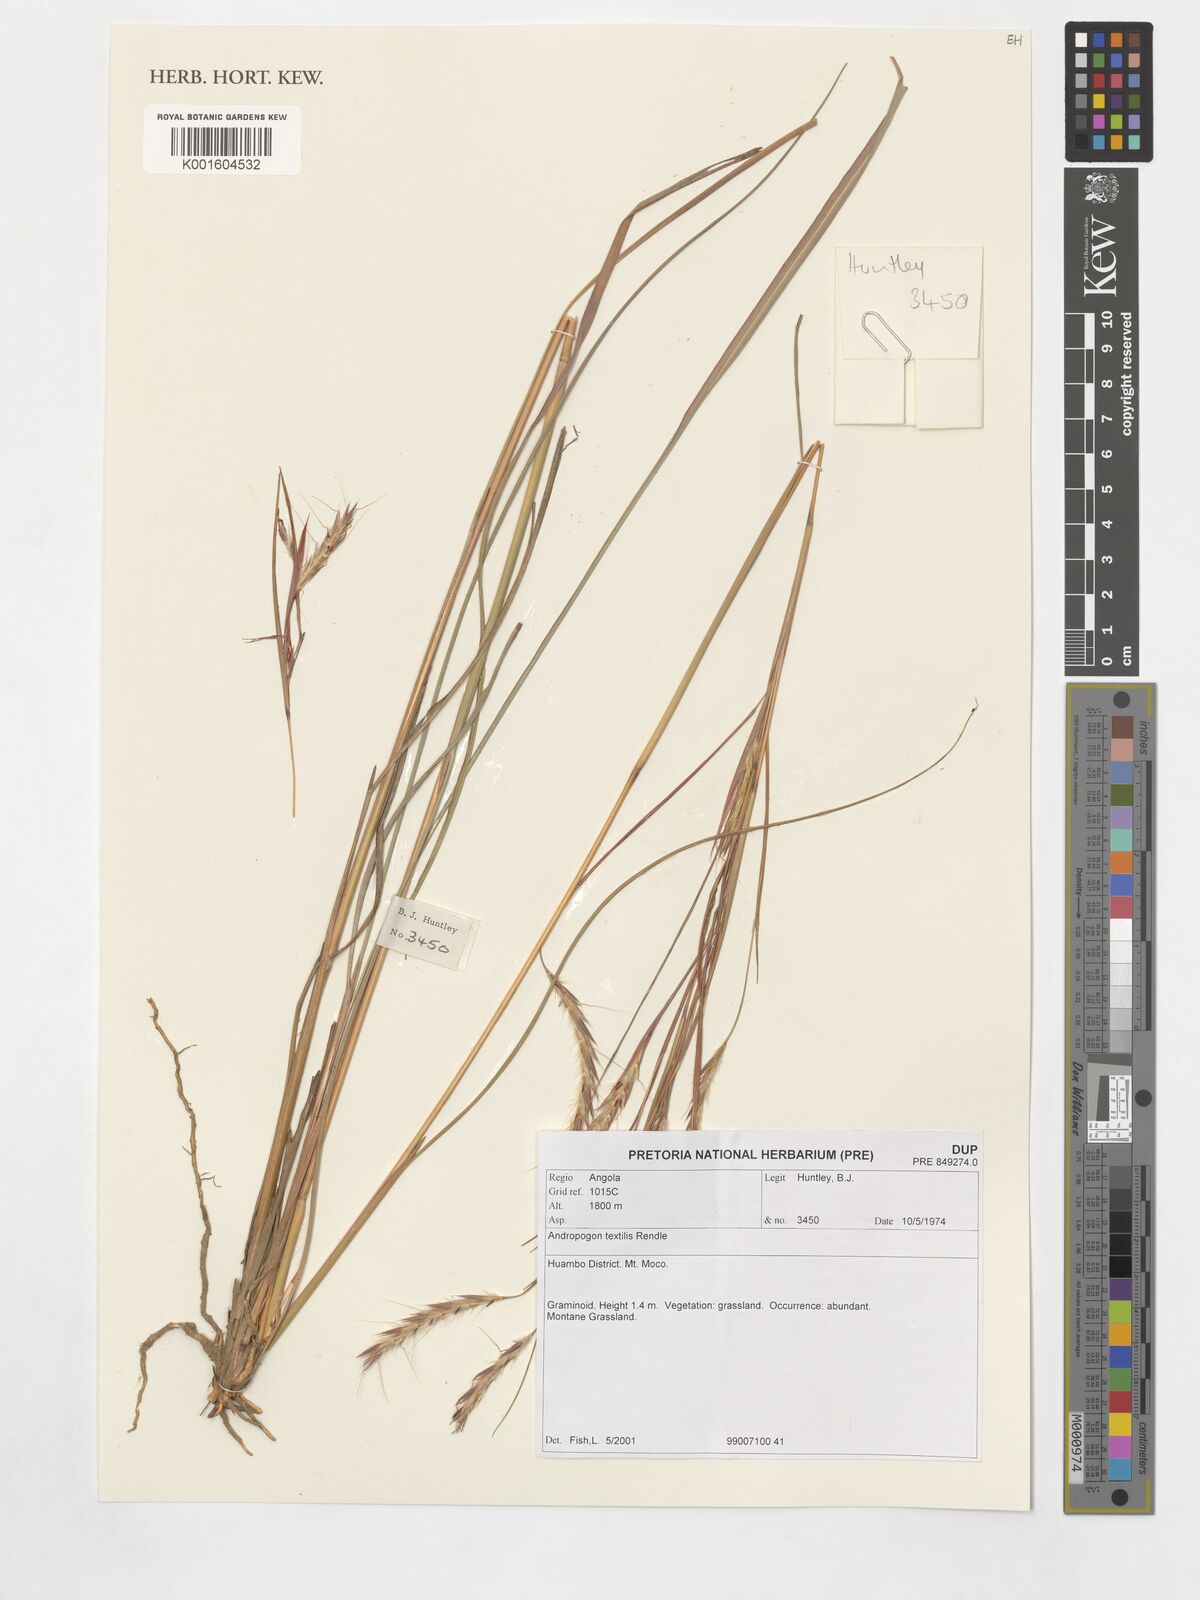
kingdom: Plantae
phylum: Tracheophyta
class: Liliopsida
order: Poales
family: Poaceae
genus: Andropogon
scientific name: Andropogon textilis
